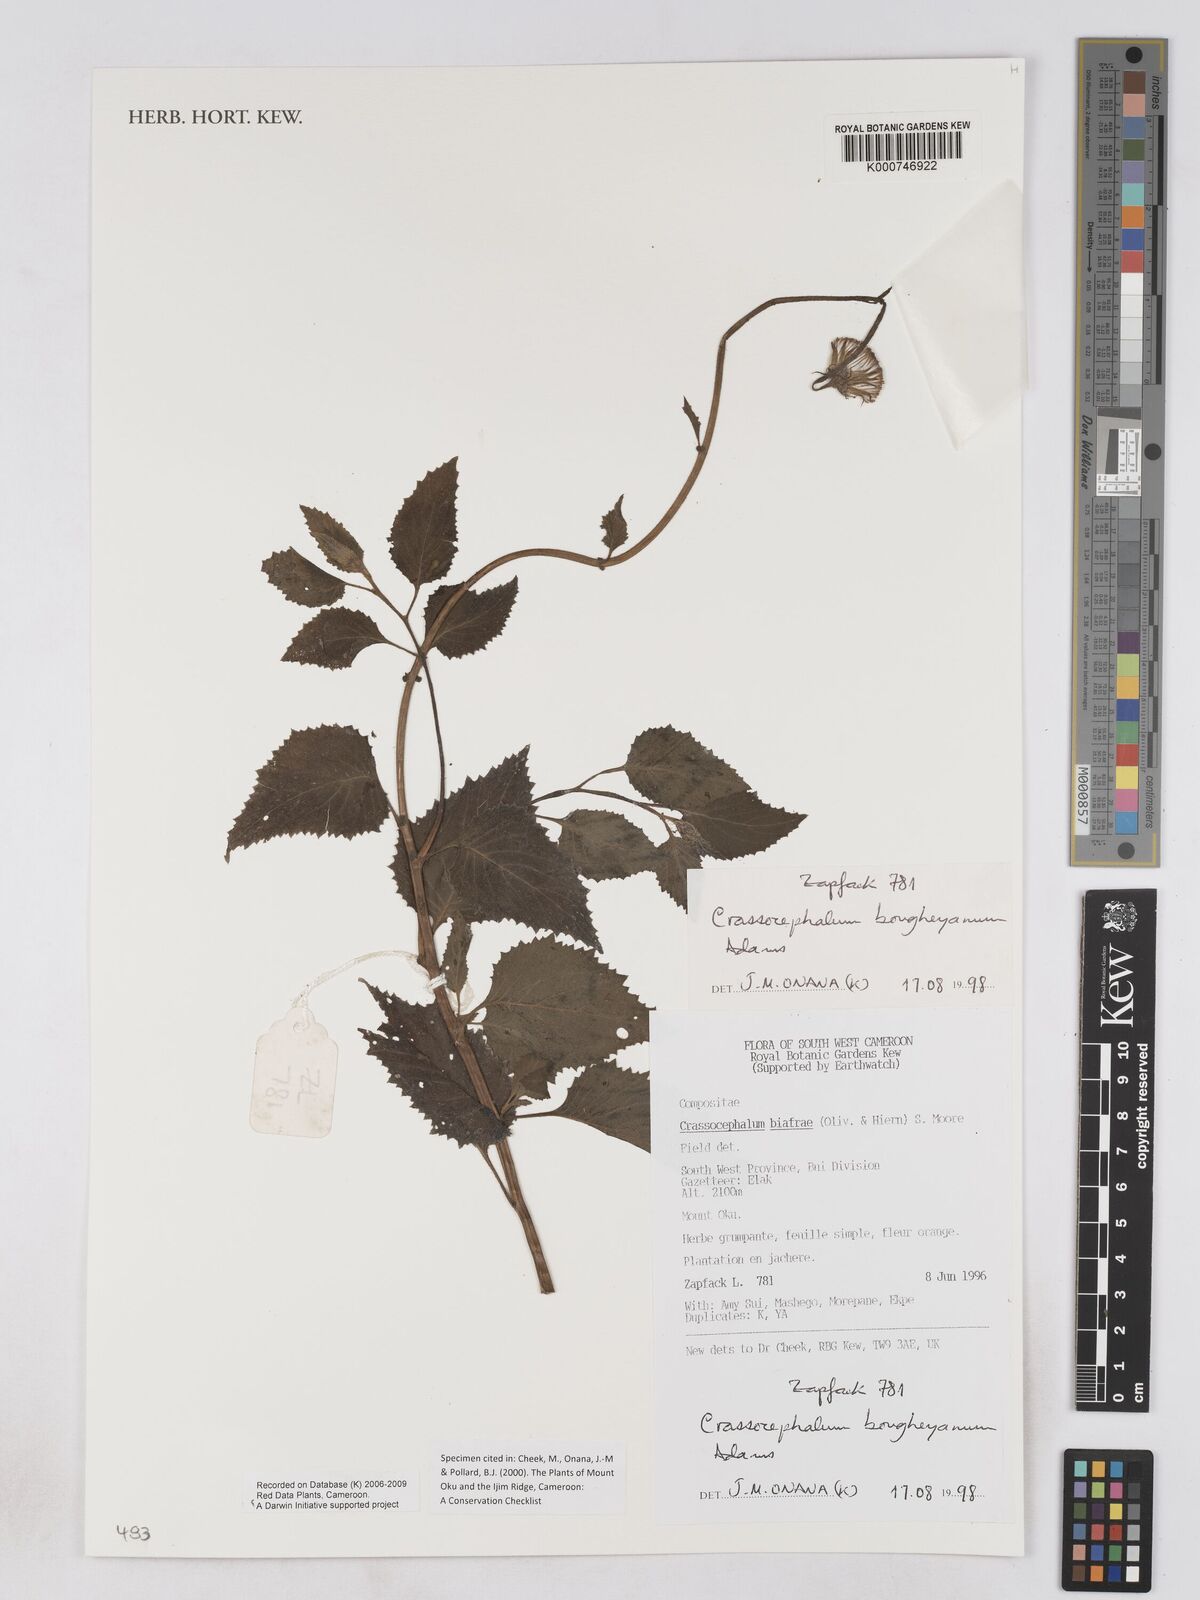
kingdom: Plantae
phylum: Tracheophyta
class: Magnoliopsida
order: Asterales
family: Asteraceae
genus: Crassocephalum
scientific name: Crassocephalum bougheyanum
